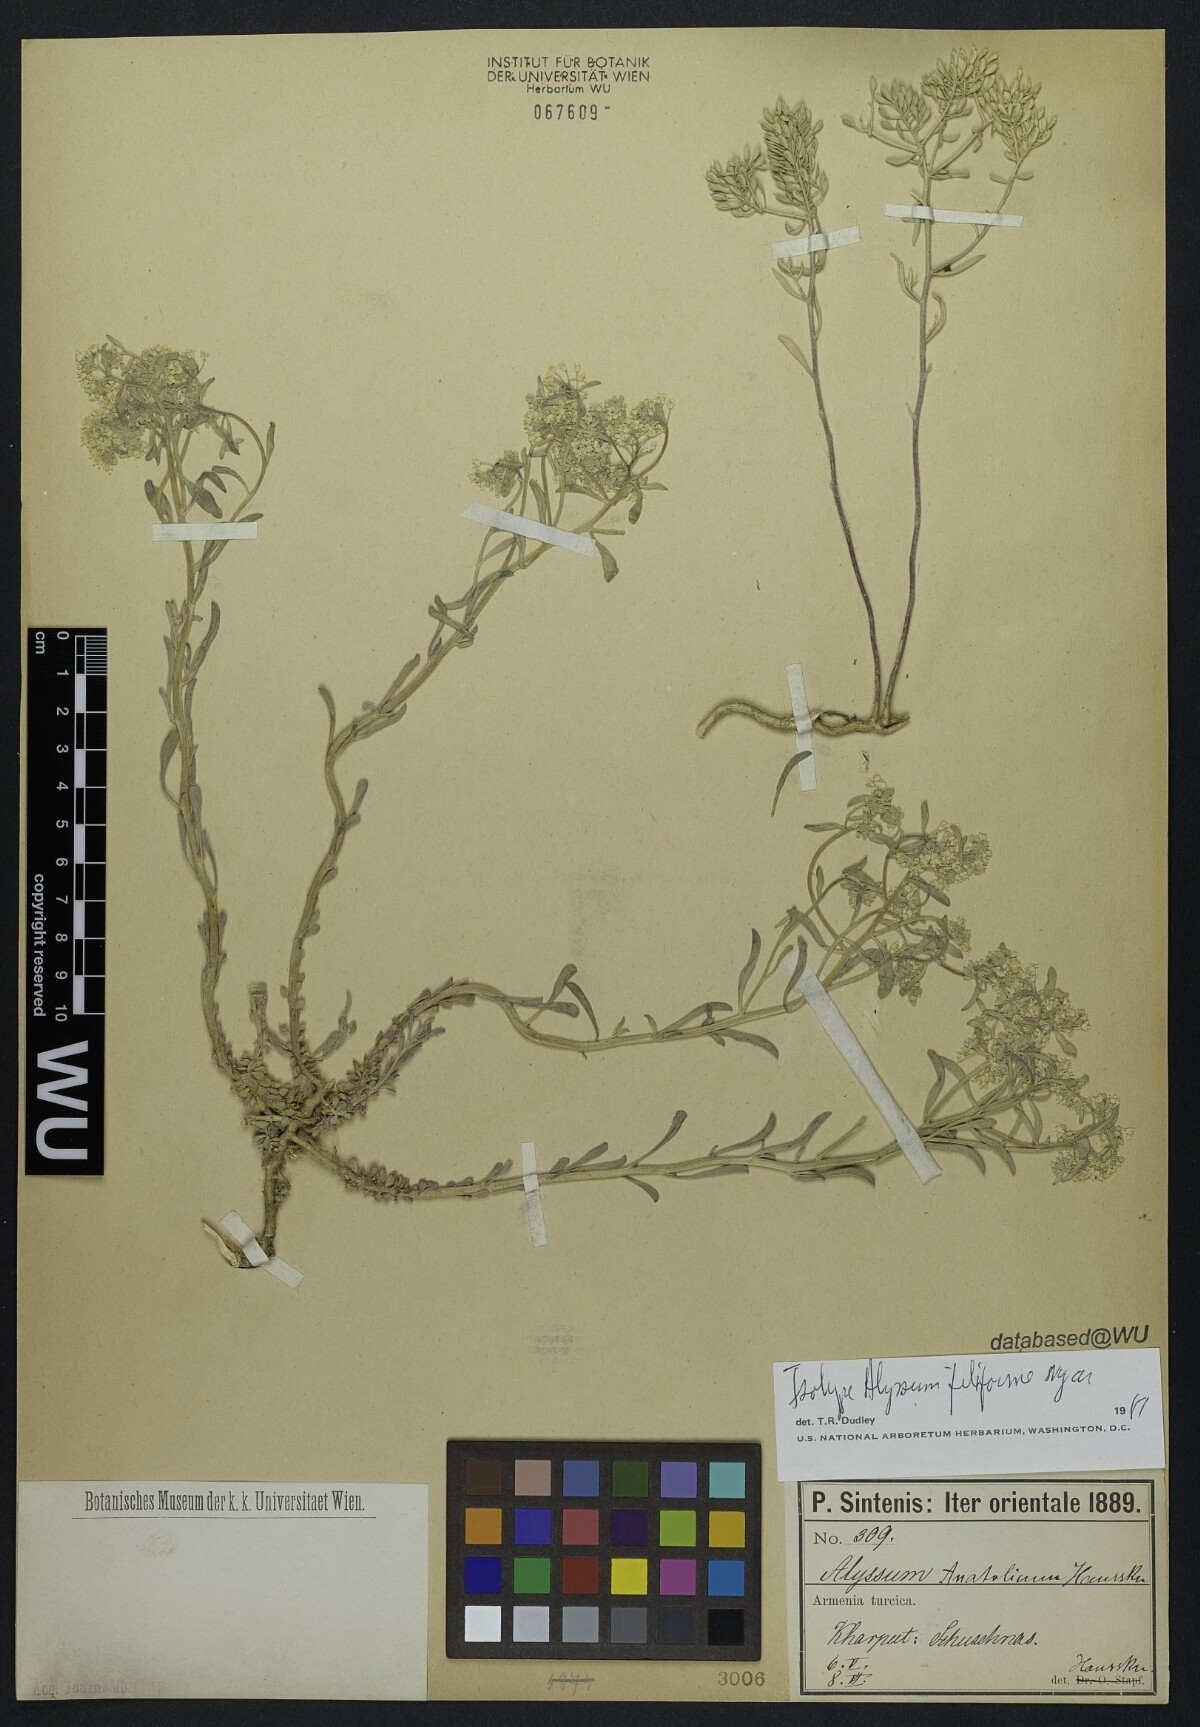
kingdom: Plantae
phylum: Tracheophyta
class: Magnoliopsida
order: Brassicales
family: Brassicaceae
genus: Odontarrhena
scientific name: Odontarrhena filiformis
